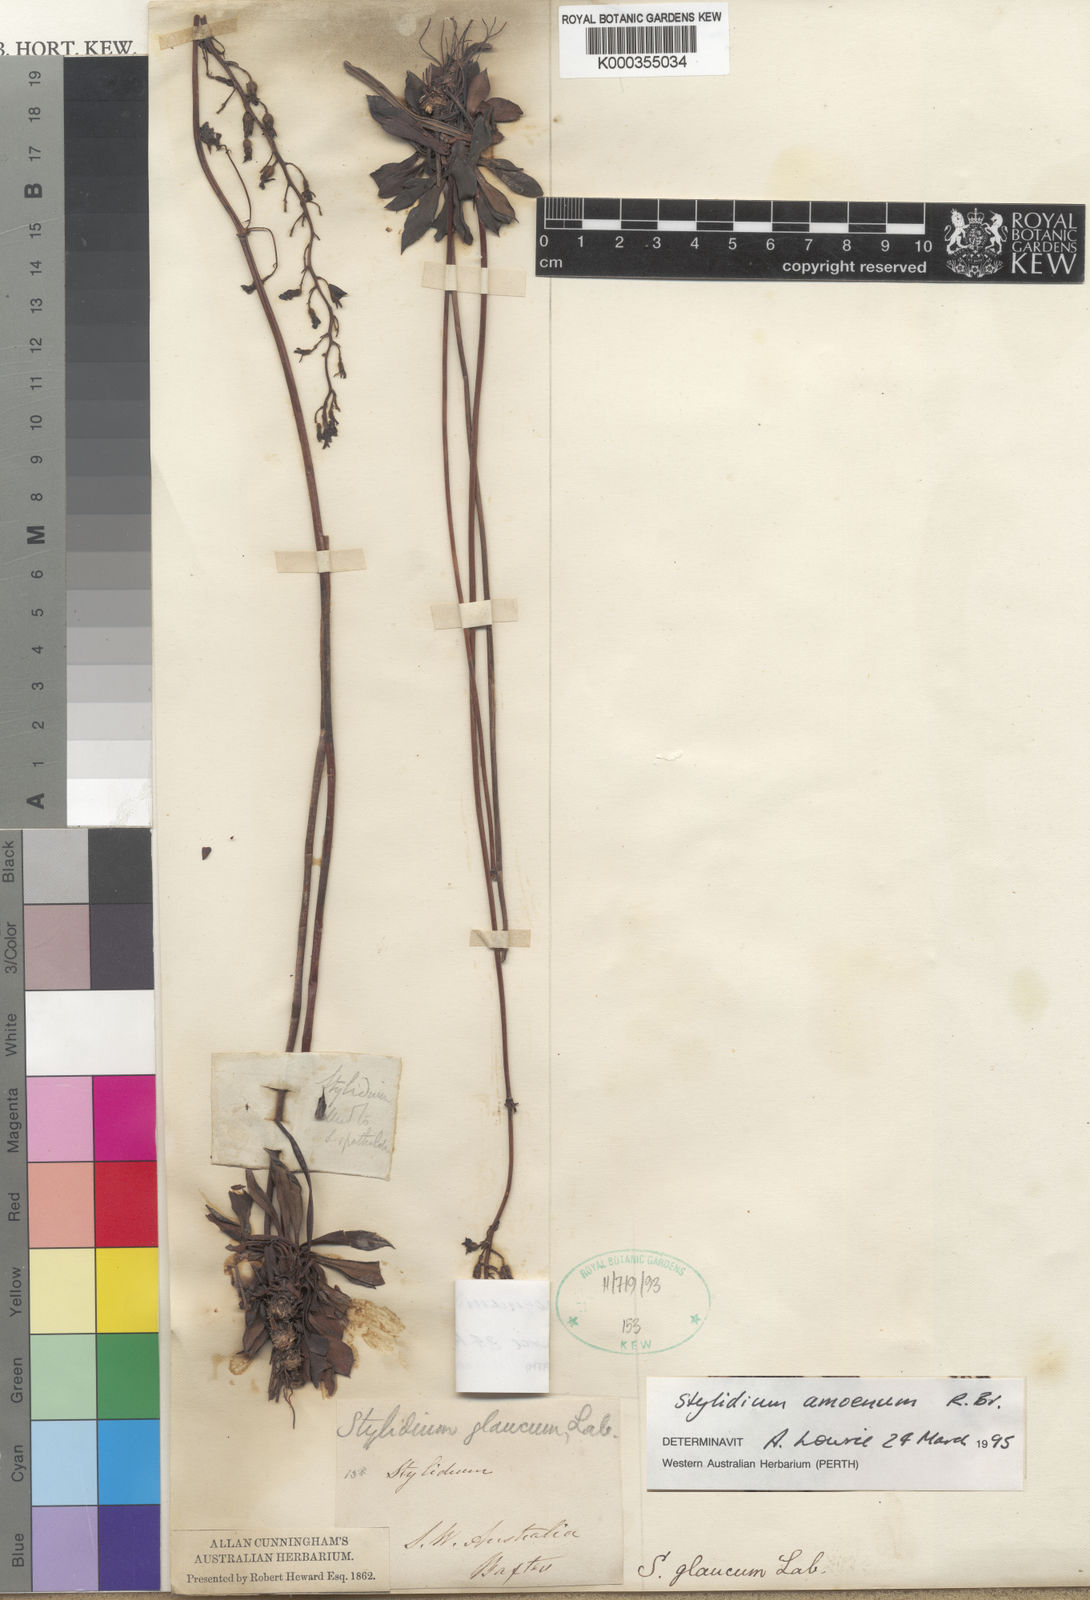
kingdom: Plantae
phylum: Tracheophyta
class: Magnoliopsida
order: Asterales
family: Stylidiaceae
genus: Stylidium
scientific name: Stylidium amoenum
